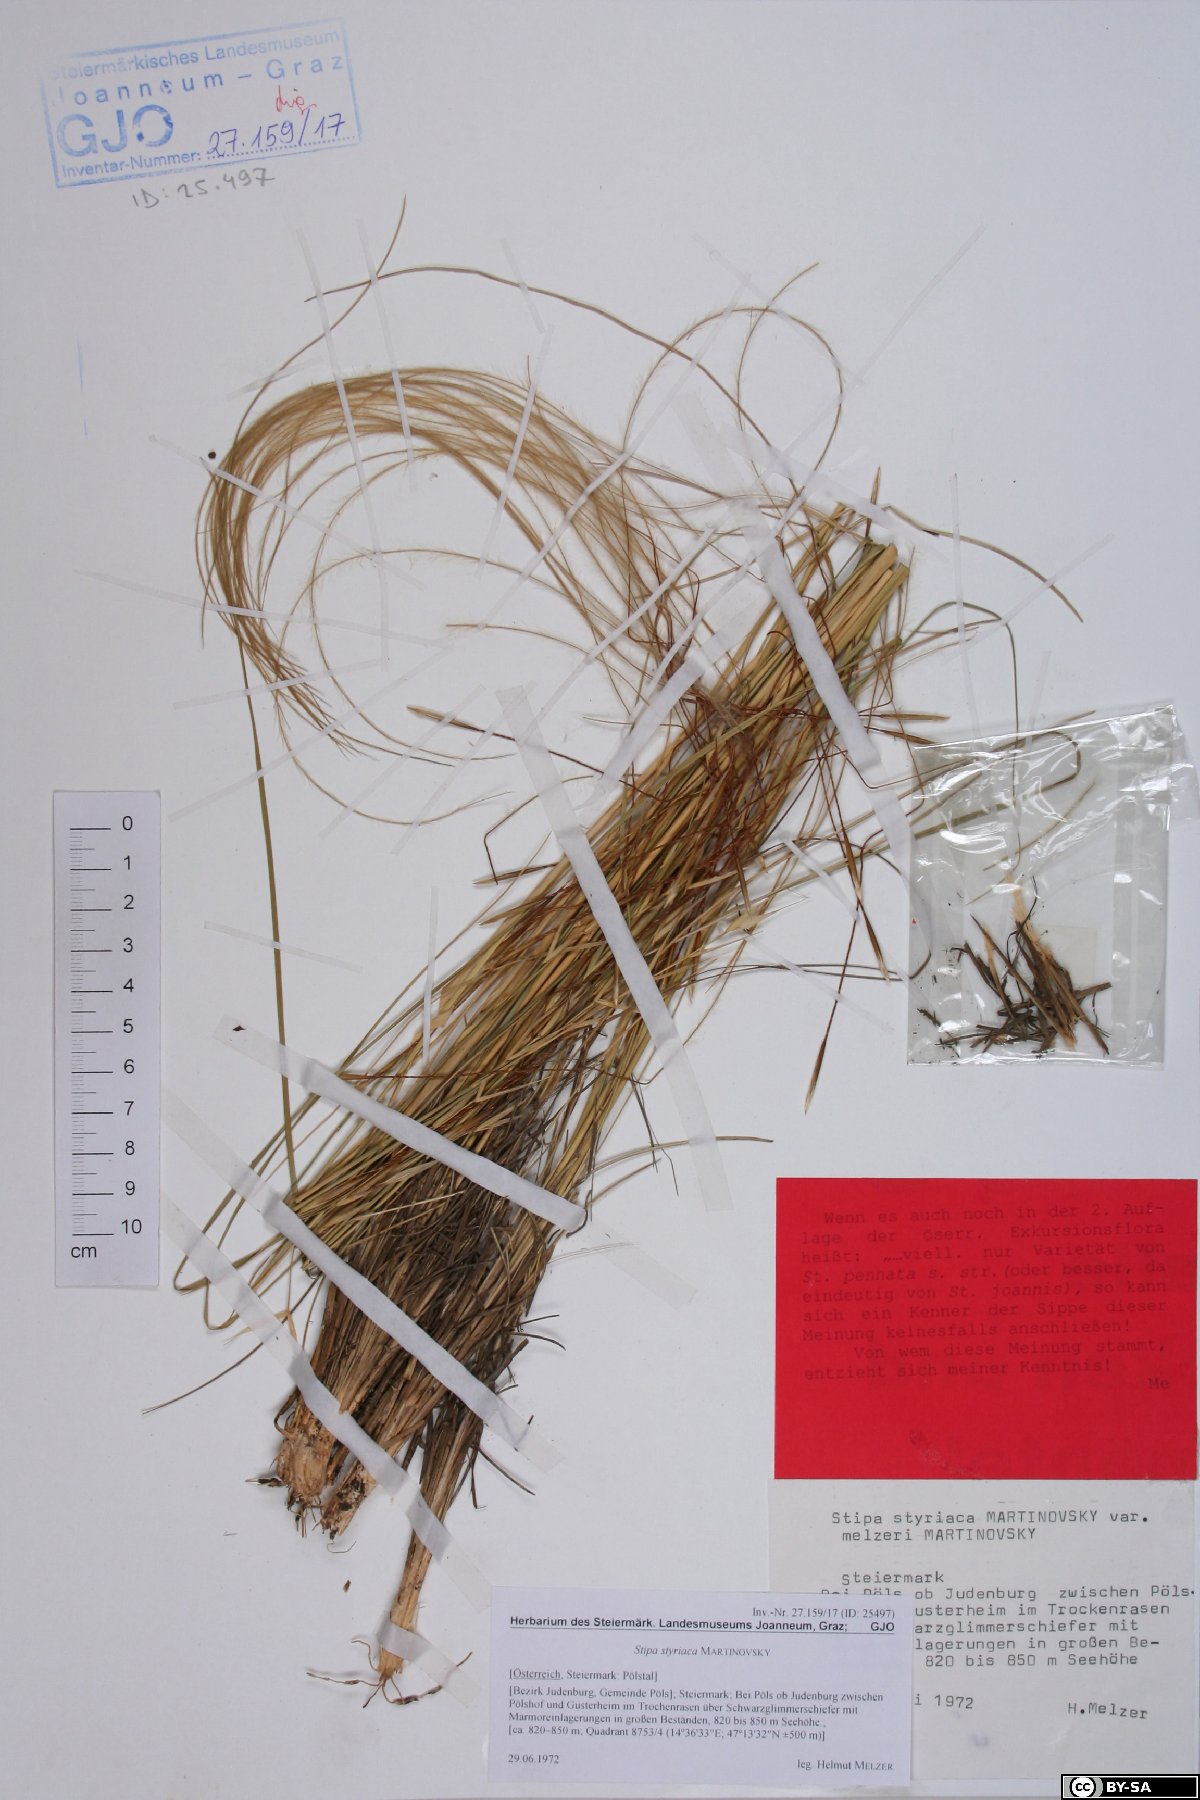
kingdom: Plantae
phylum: Tracheophyta
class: Liliopsida
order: Poales
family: Poaceae
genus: Stipa
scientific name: Stipa pennata
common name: European feather grass
